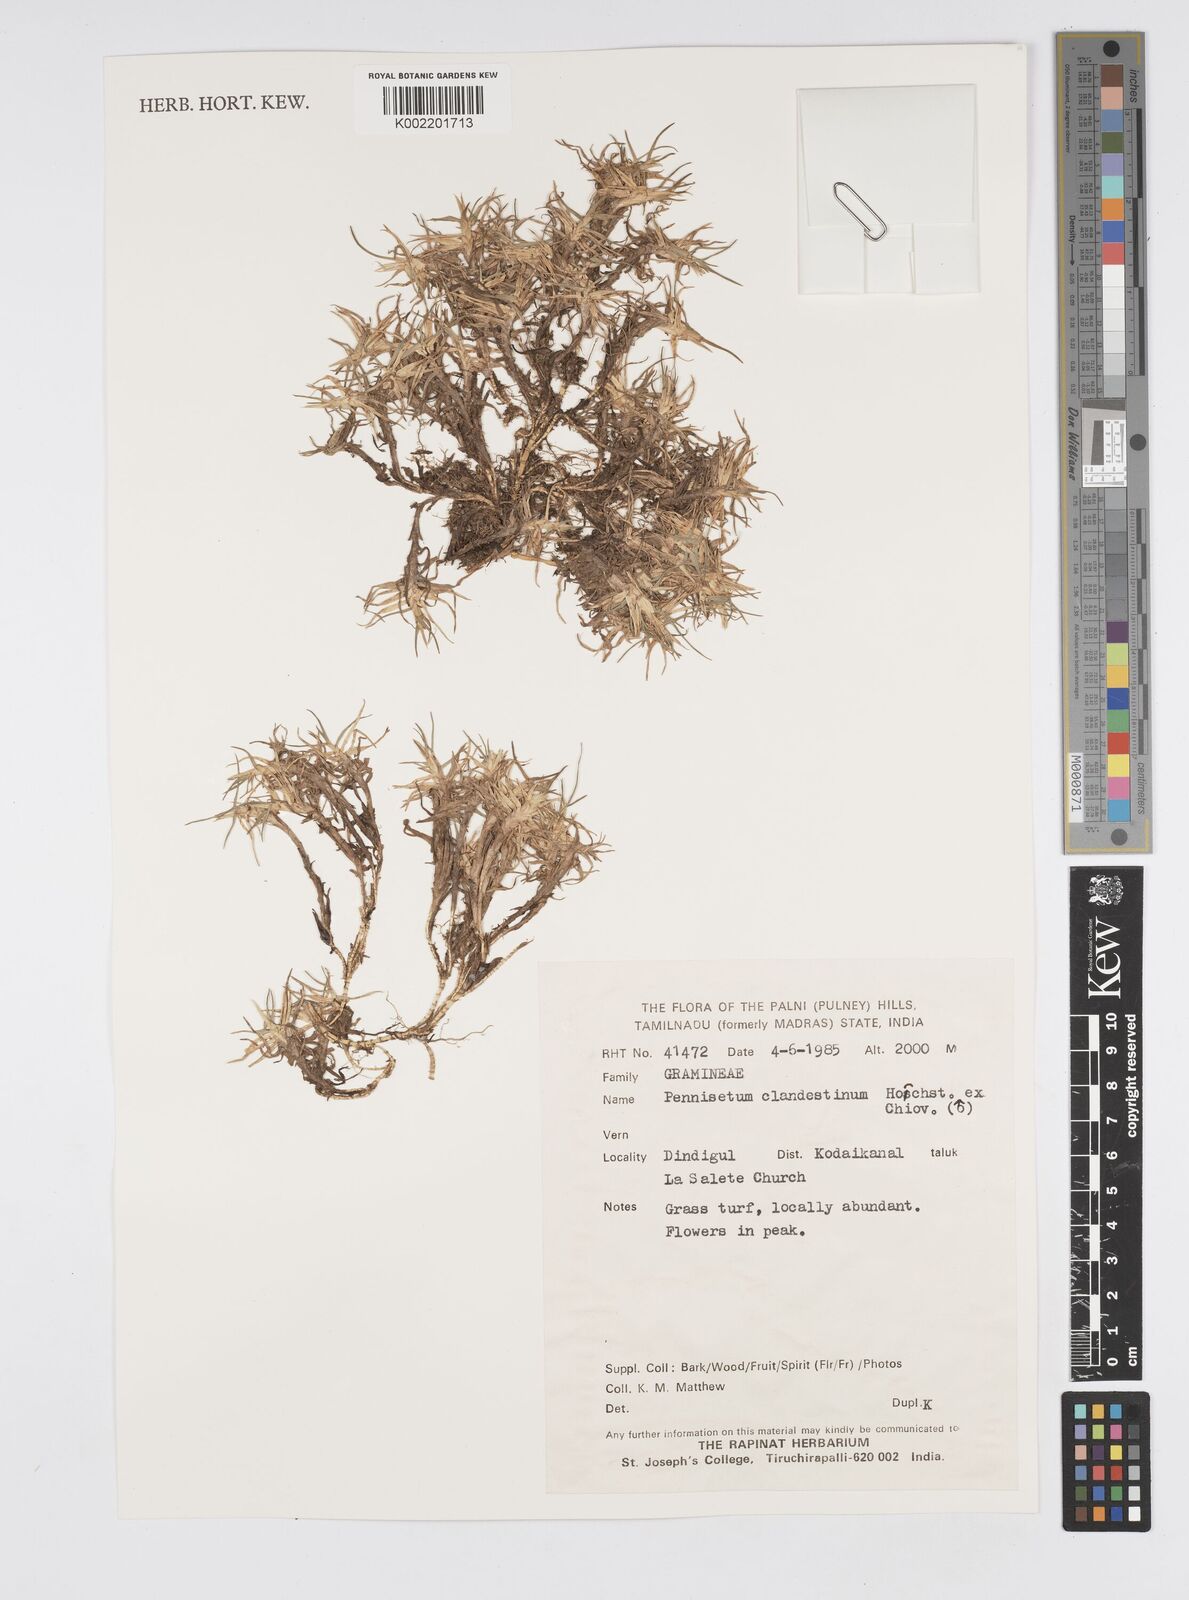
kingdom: Plantae
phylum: Tracheophyta
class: Liliopsida
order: Poales
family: Poaceae
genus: Cenchrus
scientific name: Cenchrus clandestinus
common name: Kikuyugrass
